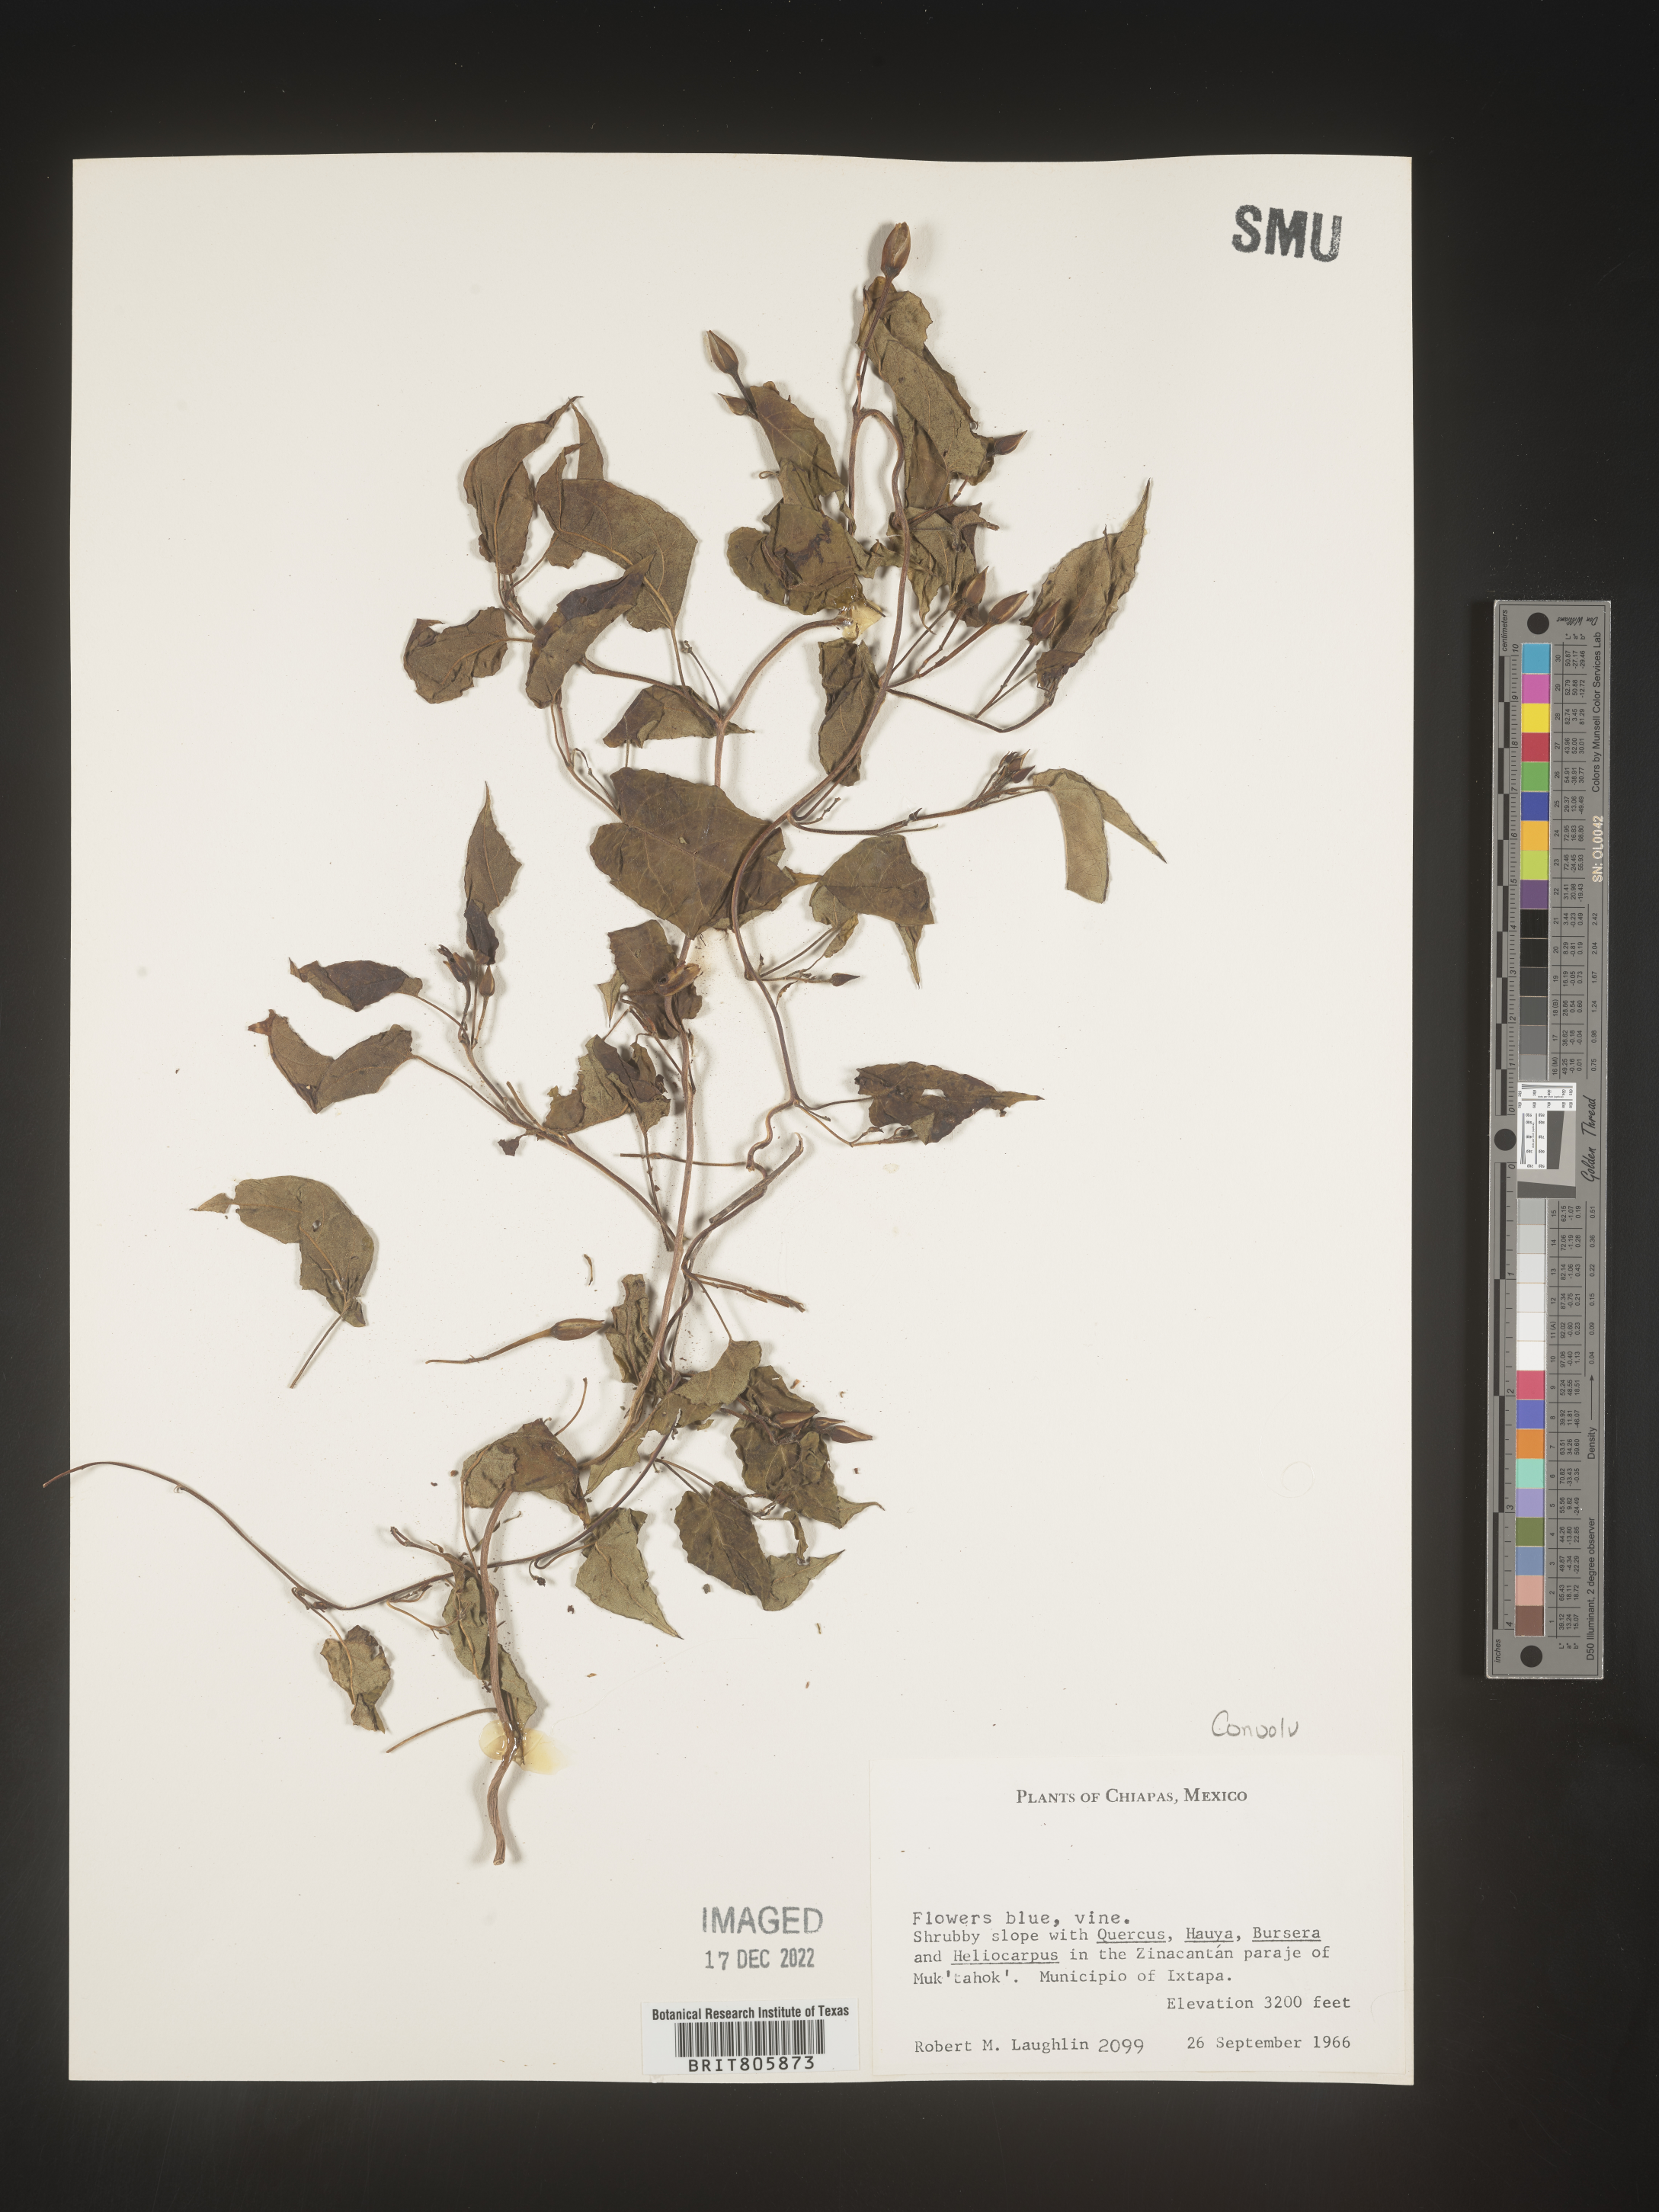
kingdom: Plantae
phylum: Tracheophyta
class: Magnoliopsida
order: Solanales
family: Convolvulaceae
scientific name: Convolvulaceae
